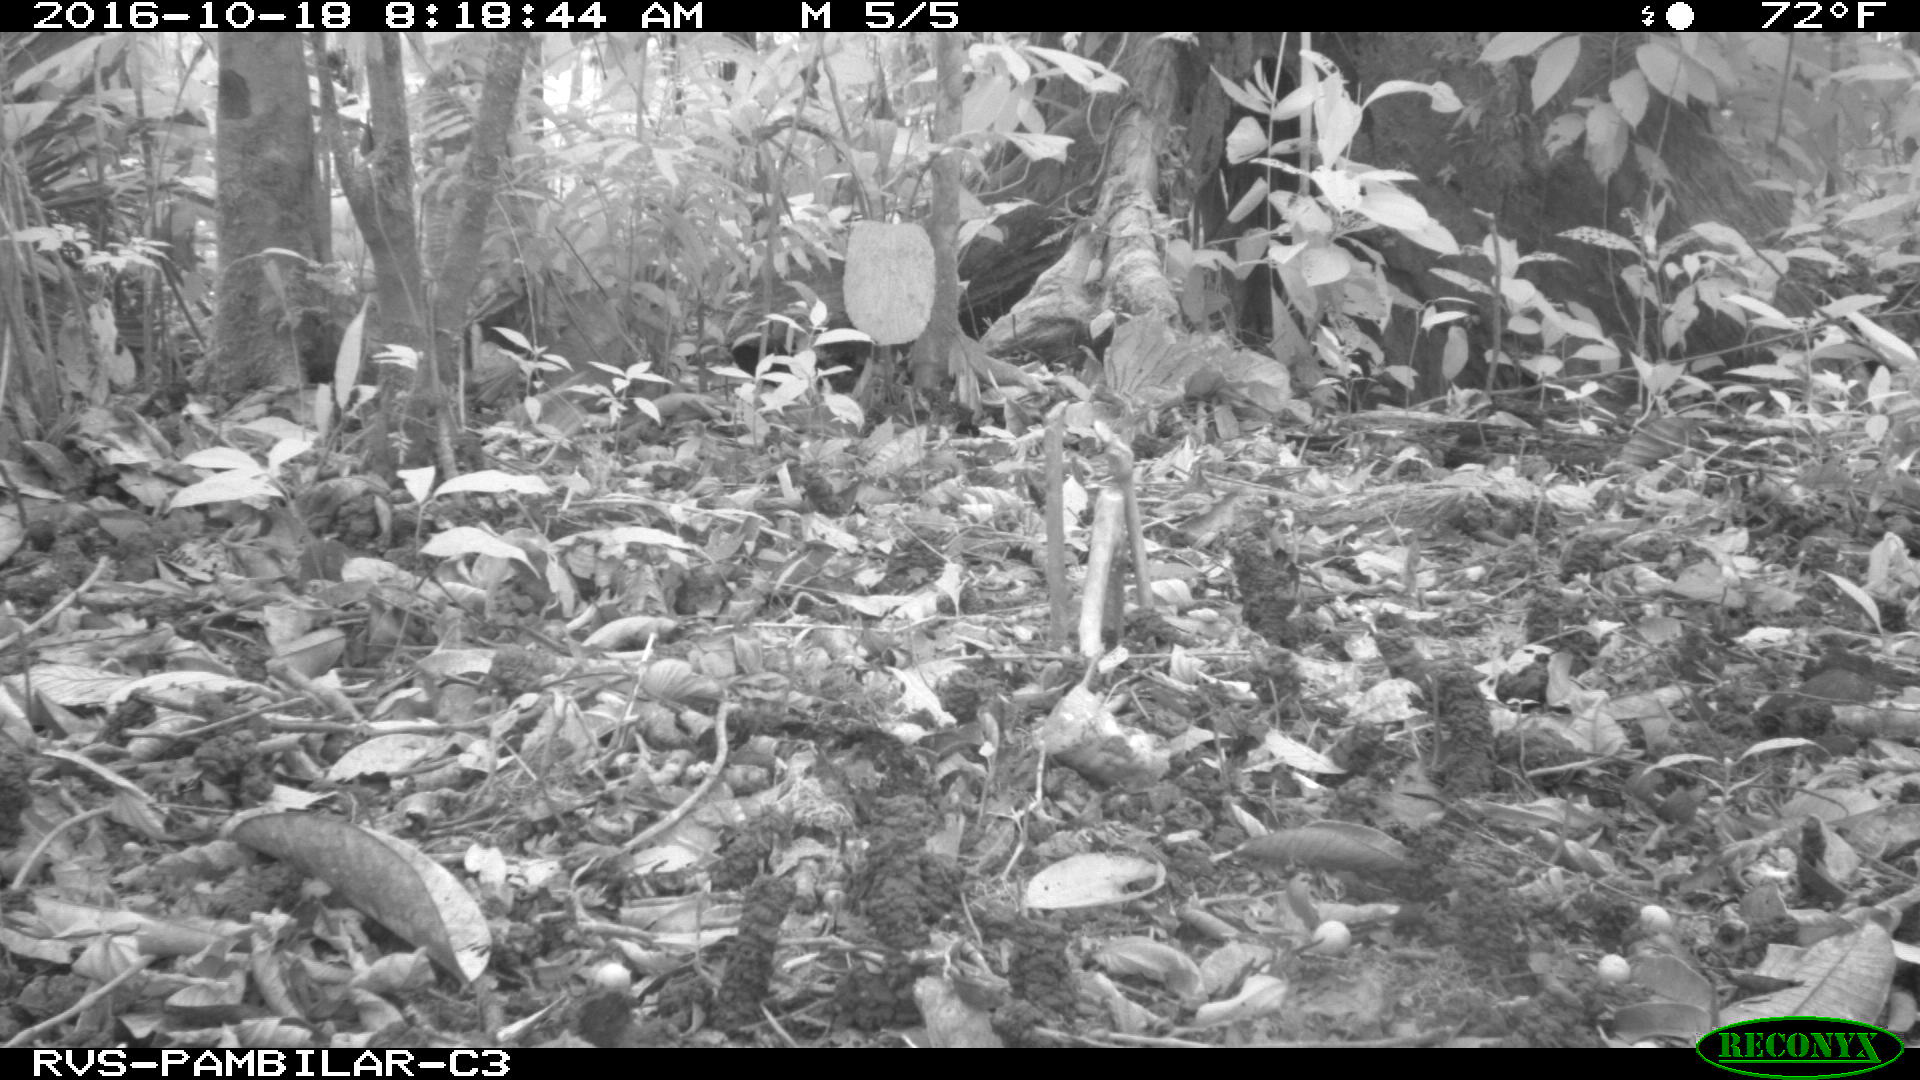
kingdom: Animalia
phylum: Chordata
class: Mammalia
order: Carnivora
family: Mustelidae
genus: Eira
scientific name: Eira barbara
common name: Tayra
